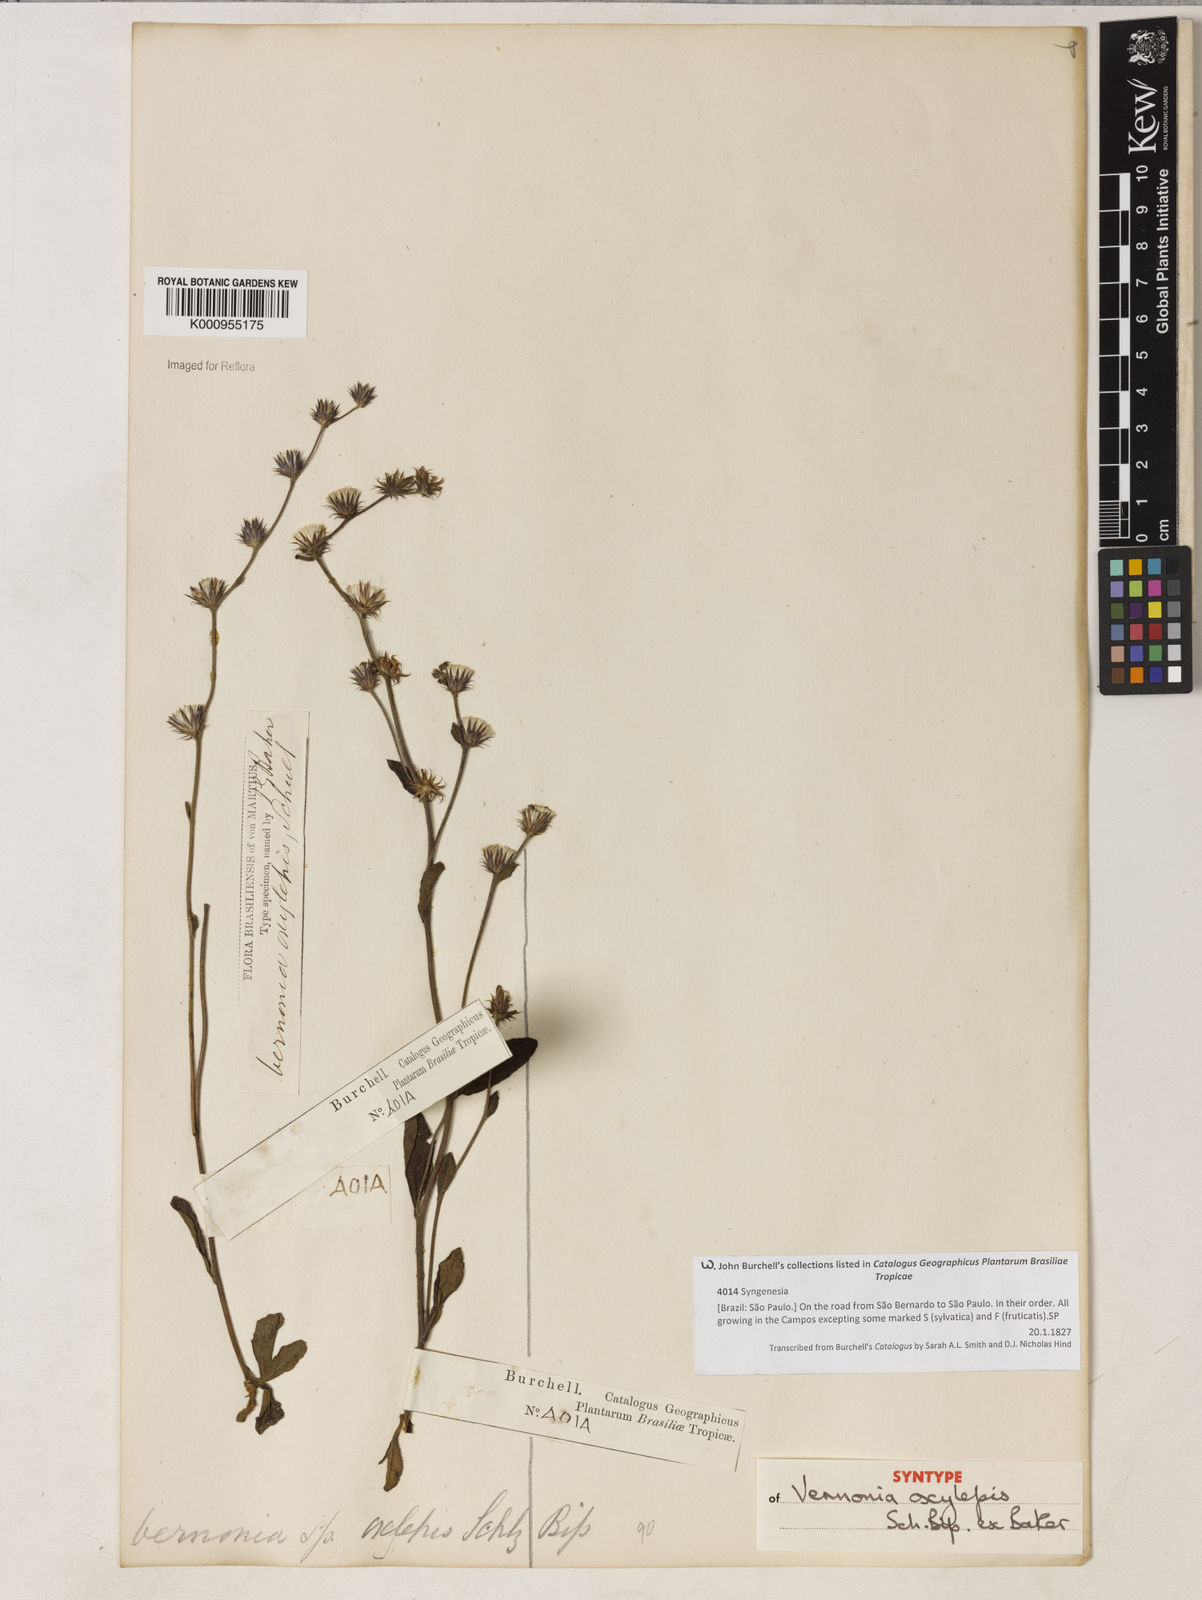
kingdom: Plantae
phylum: Tracheophyta
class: Magnoliopsida
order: Asterales
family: Asteraceae
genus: Lepidaploa
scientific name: Lepidaploa psilostachya
